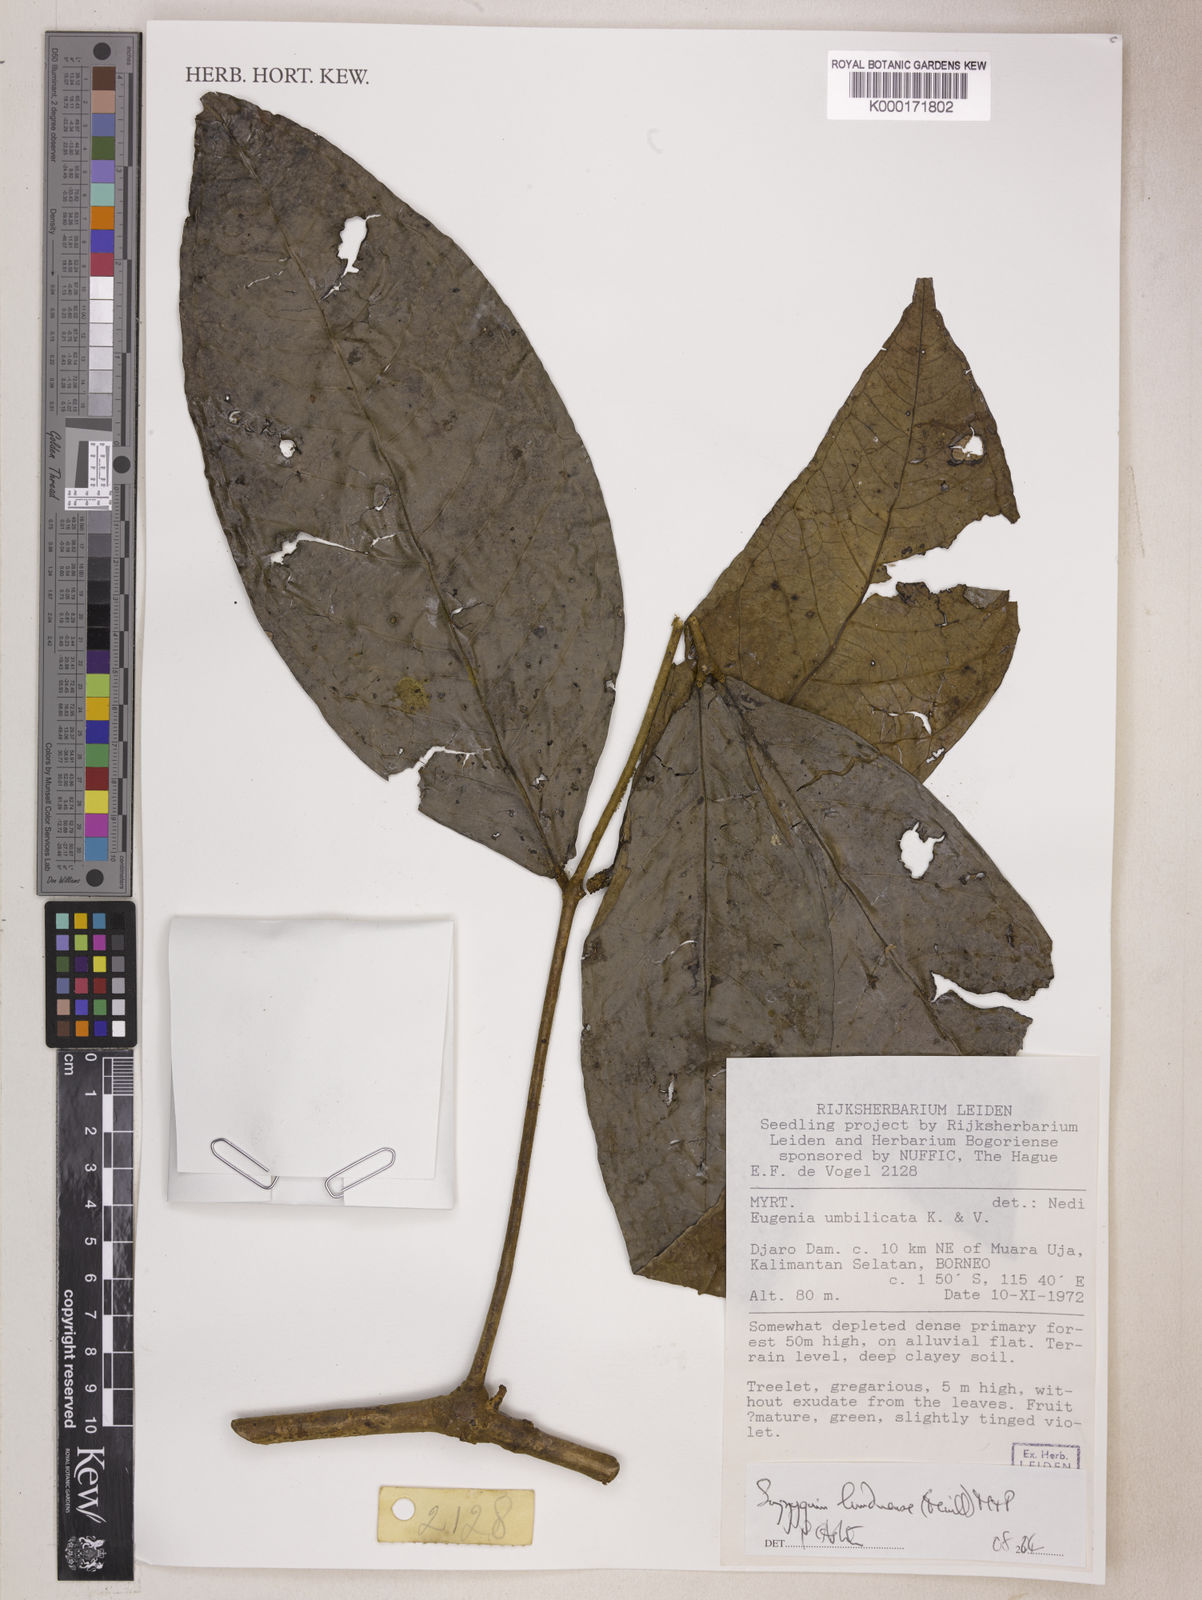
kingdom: Plantae
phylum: Tracheophyta
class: Magnoliopsida
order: Myrtales
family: Myrtaceae
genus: Syzygium
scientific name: Syzygium lunduense
